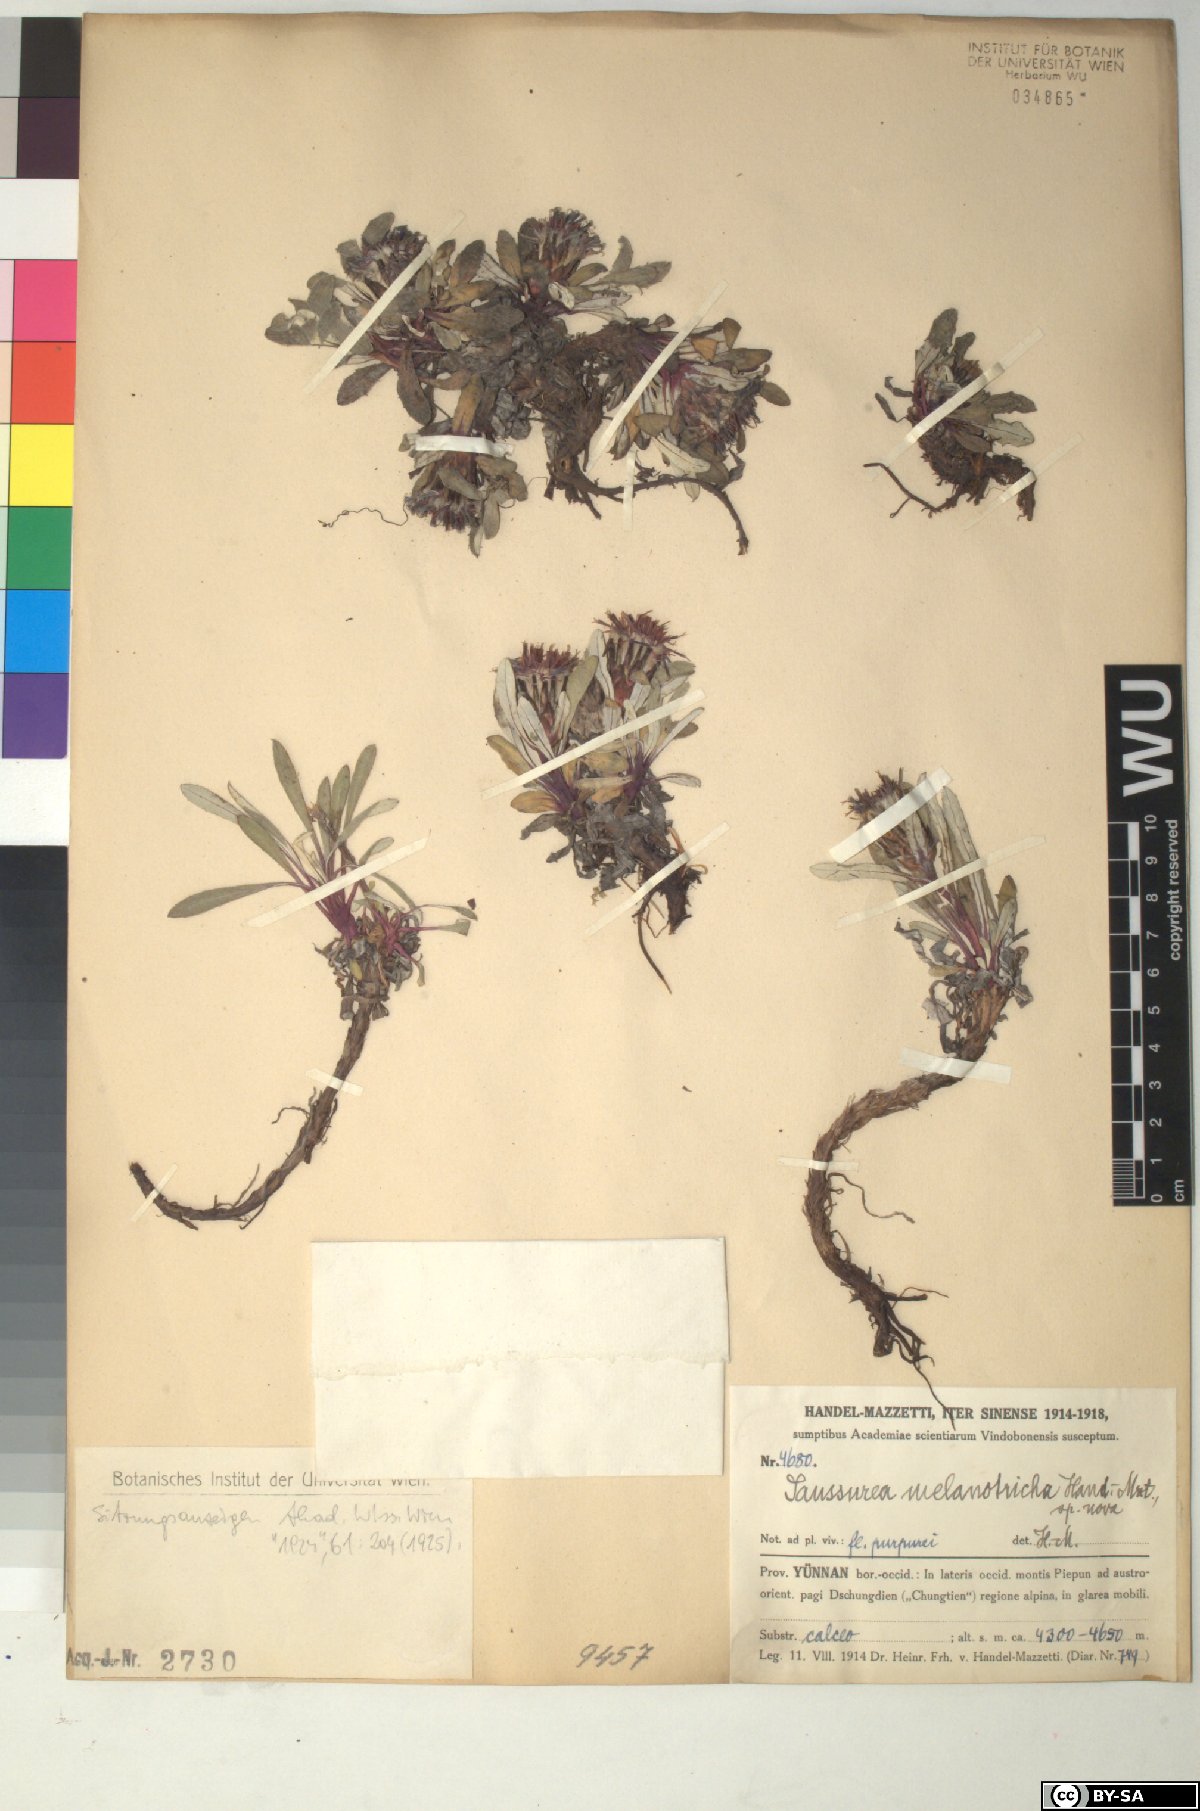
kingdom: Plantae
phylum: Tracheophyta
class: Magnoliopsida
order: Asterales
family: Asteraceae
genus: Saussurea
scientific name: Saussurea melanotricha
